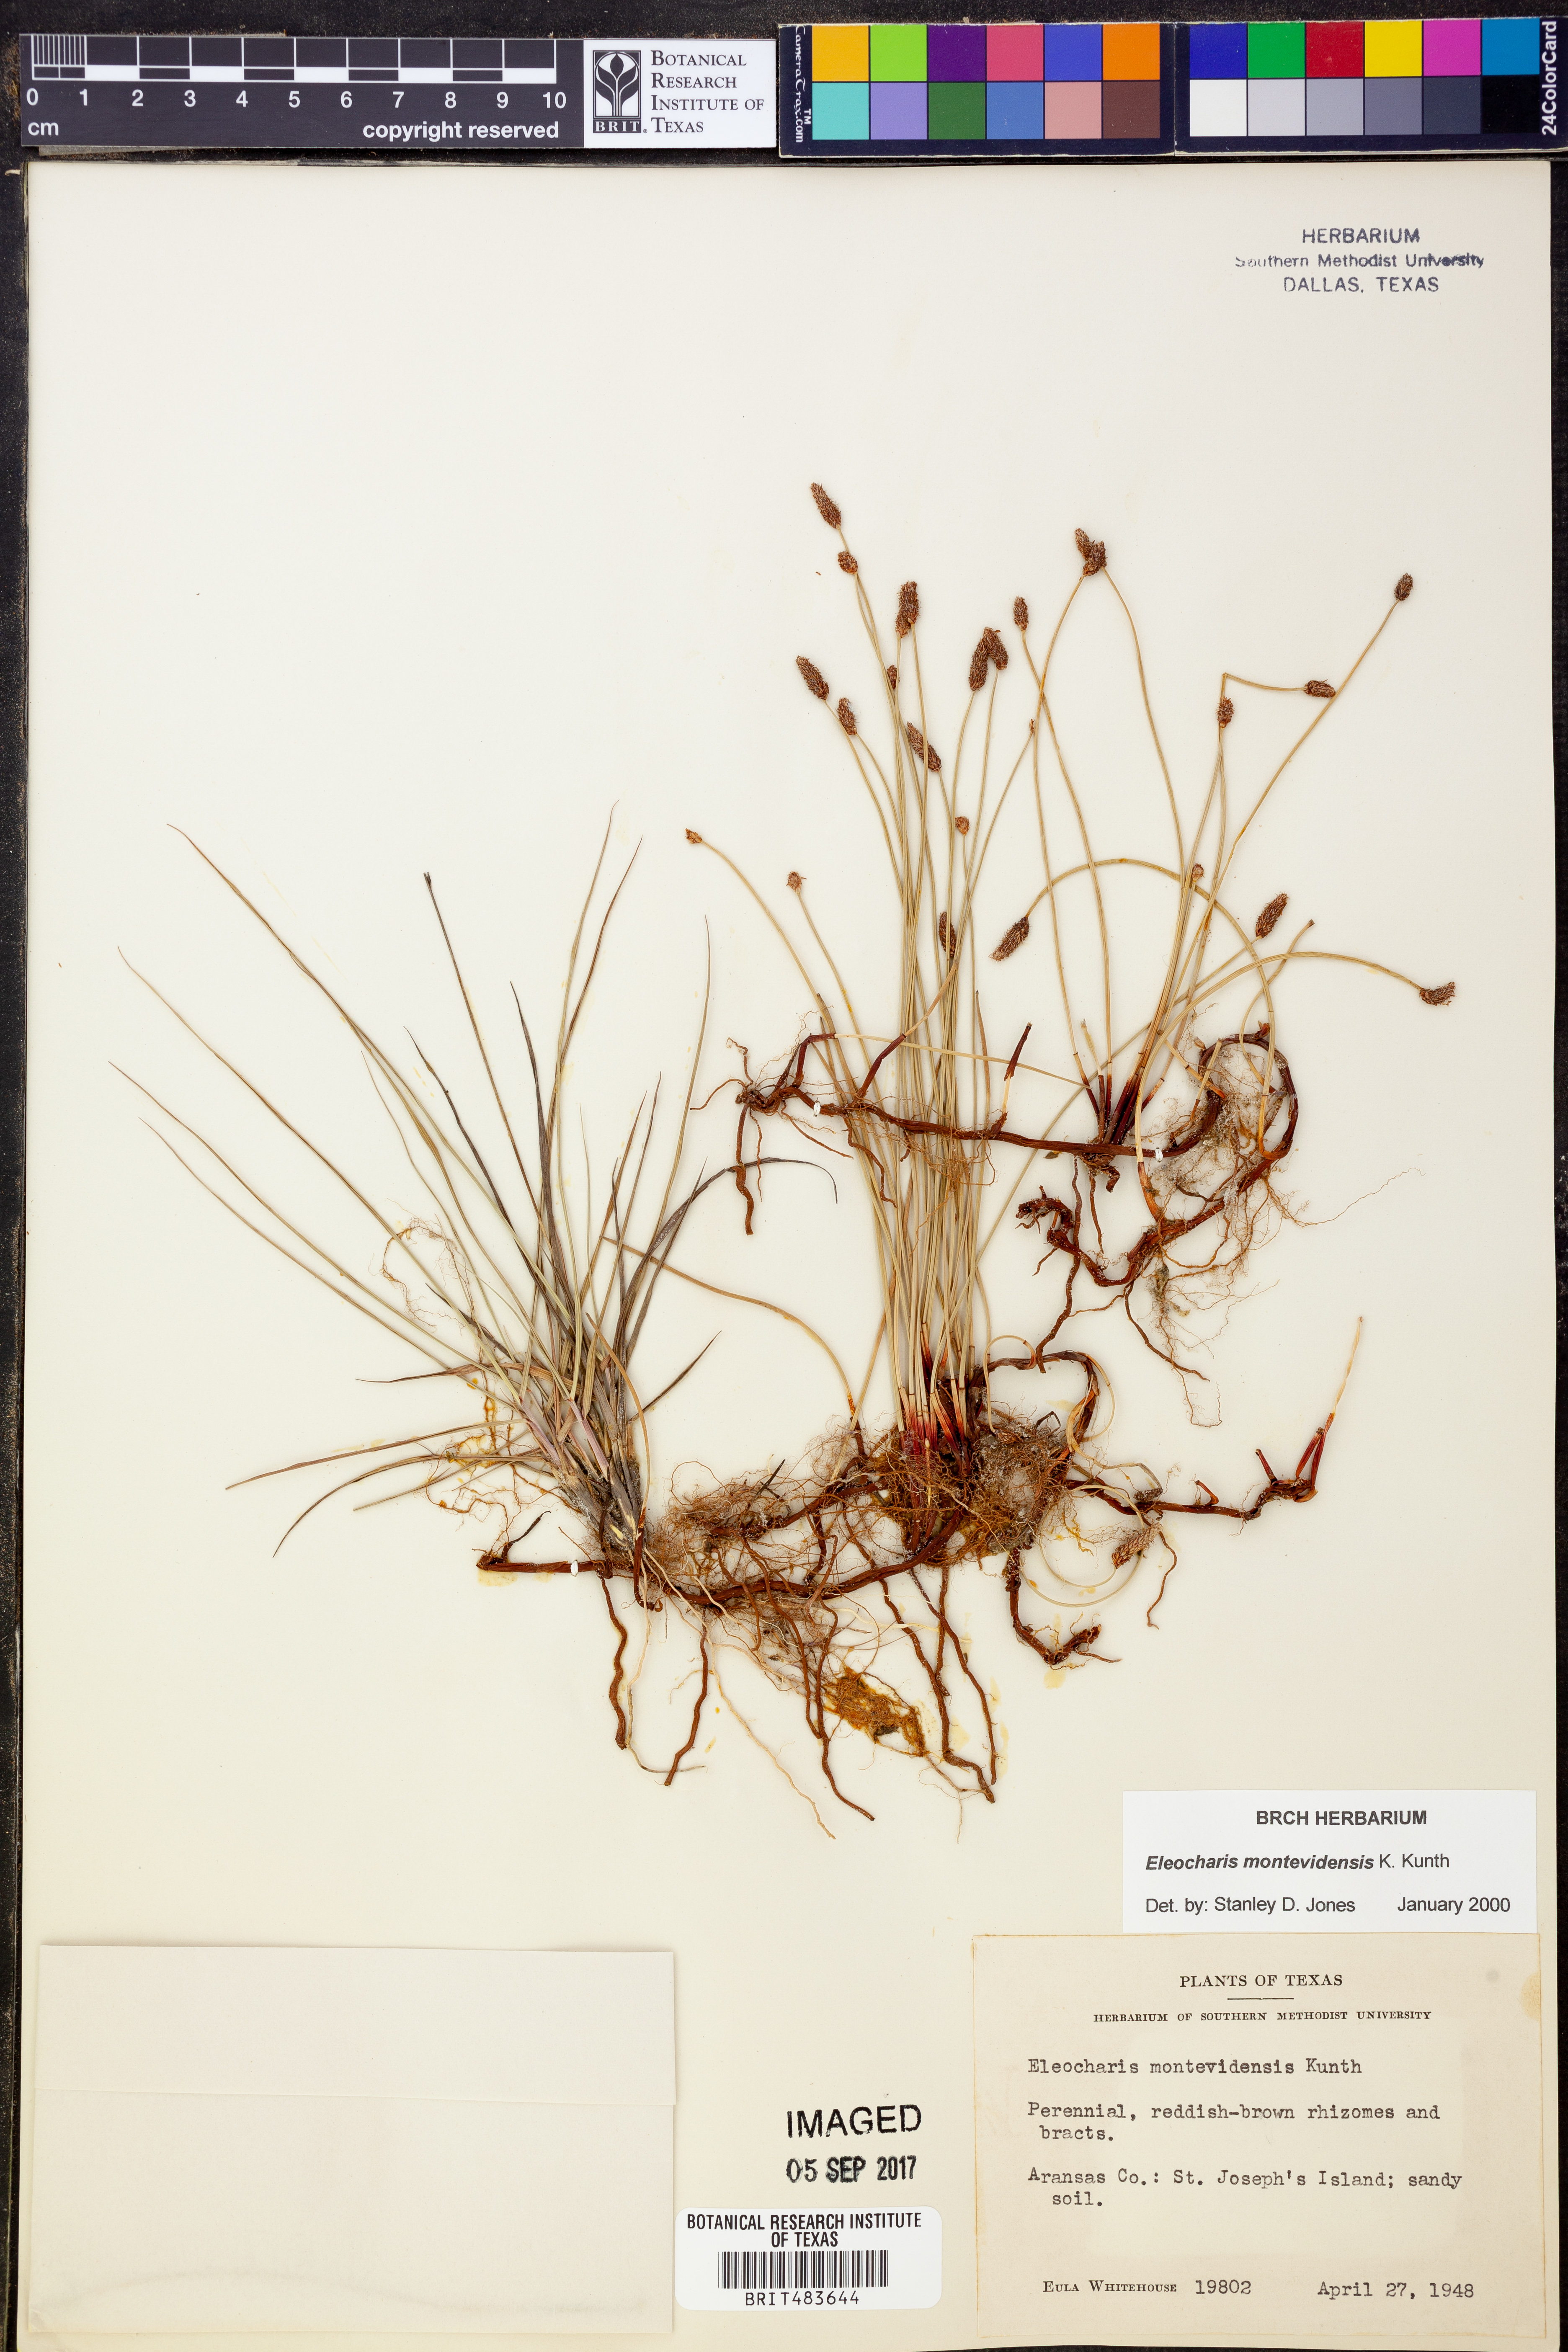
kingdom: Plantae
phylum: Tracheophyta
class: Liliopsida
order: Poales
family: Cyperaceae
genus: Eleocharis
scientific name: Eleocharis montevidensis
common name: Sand spike-rush
